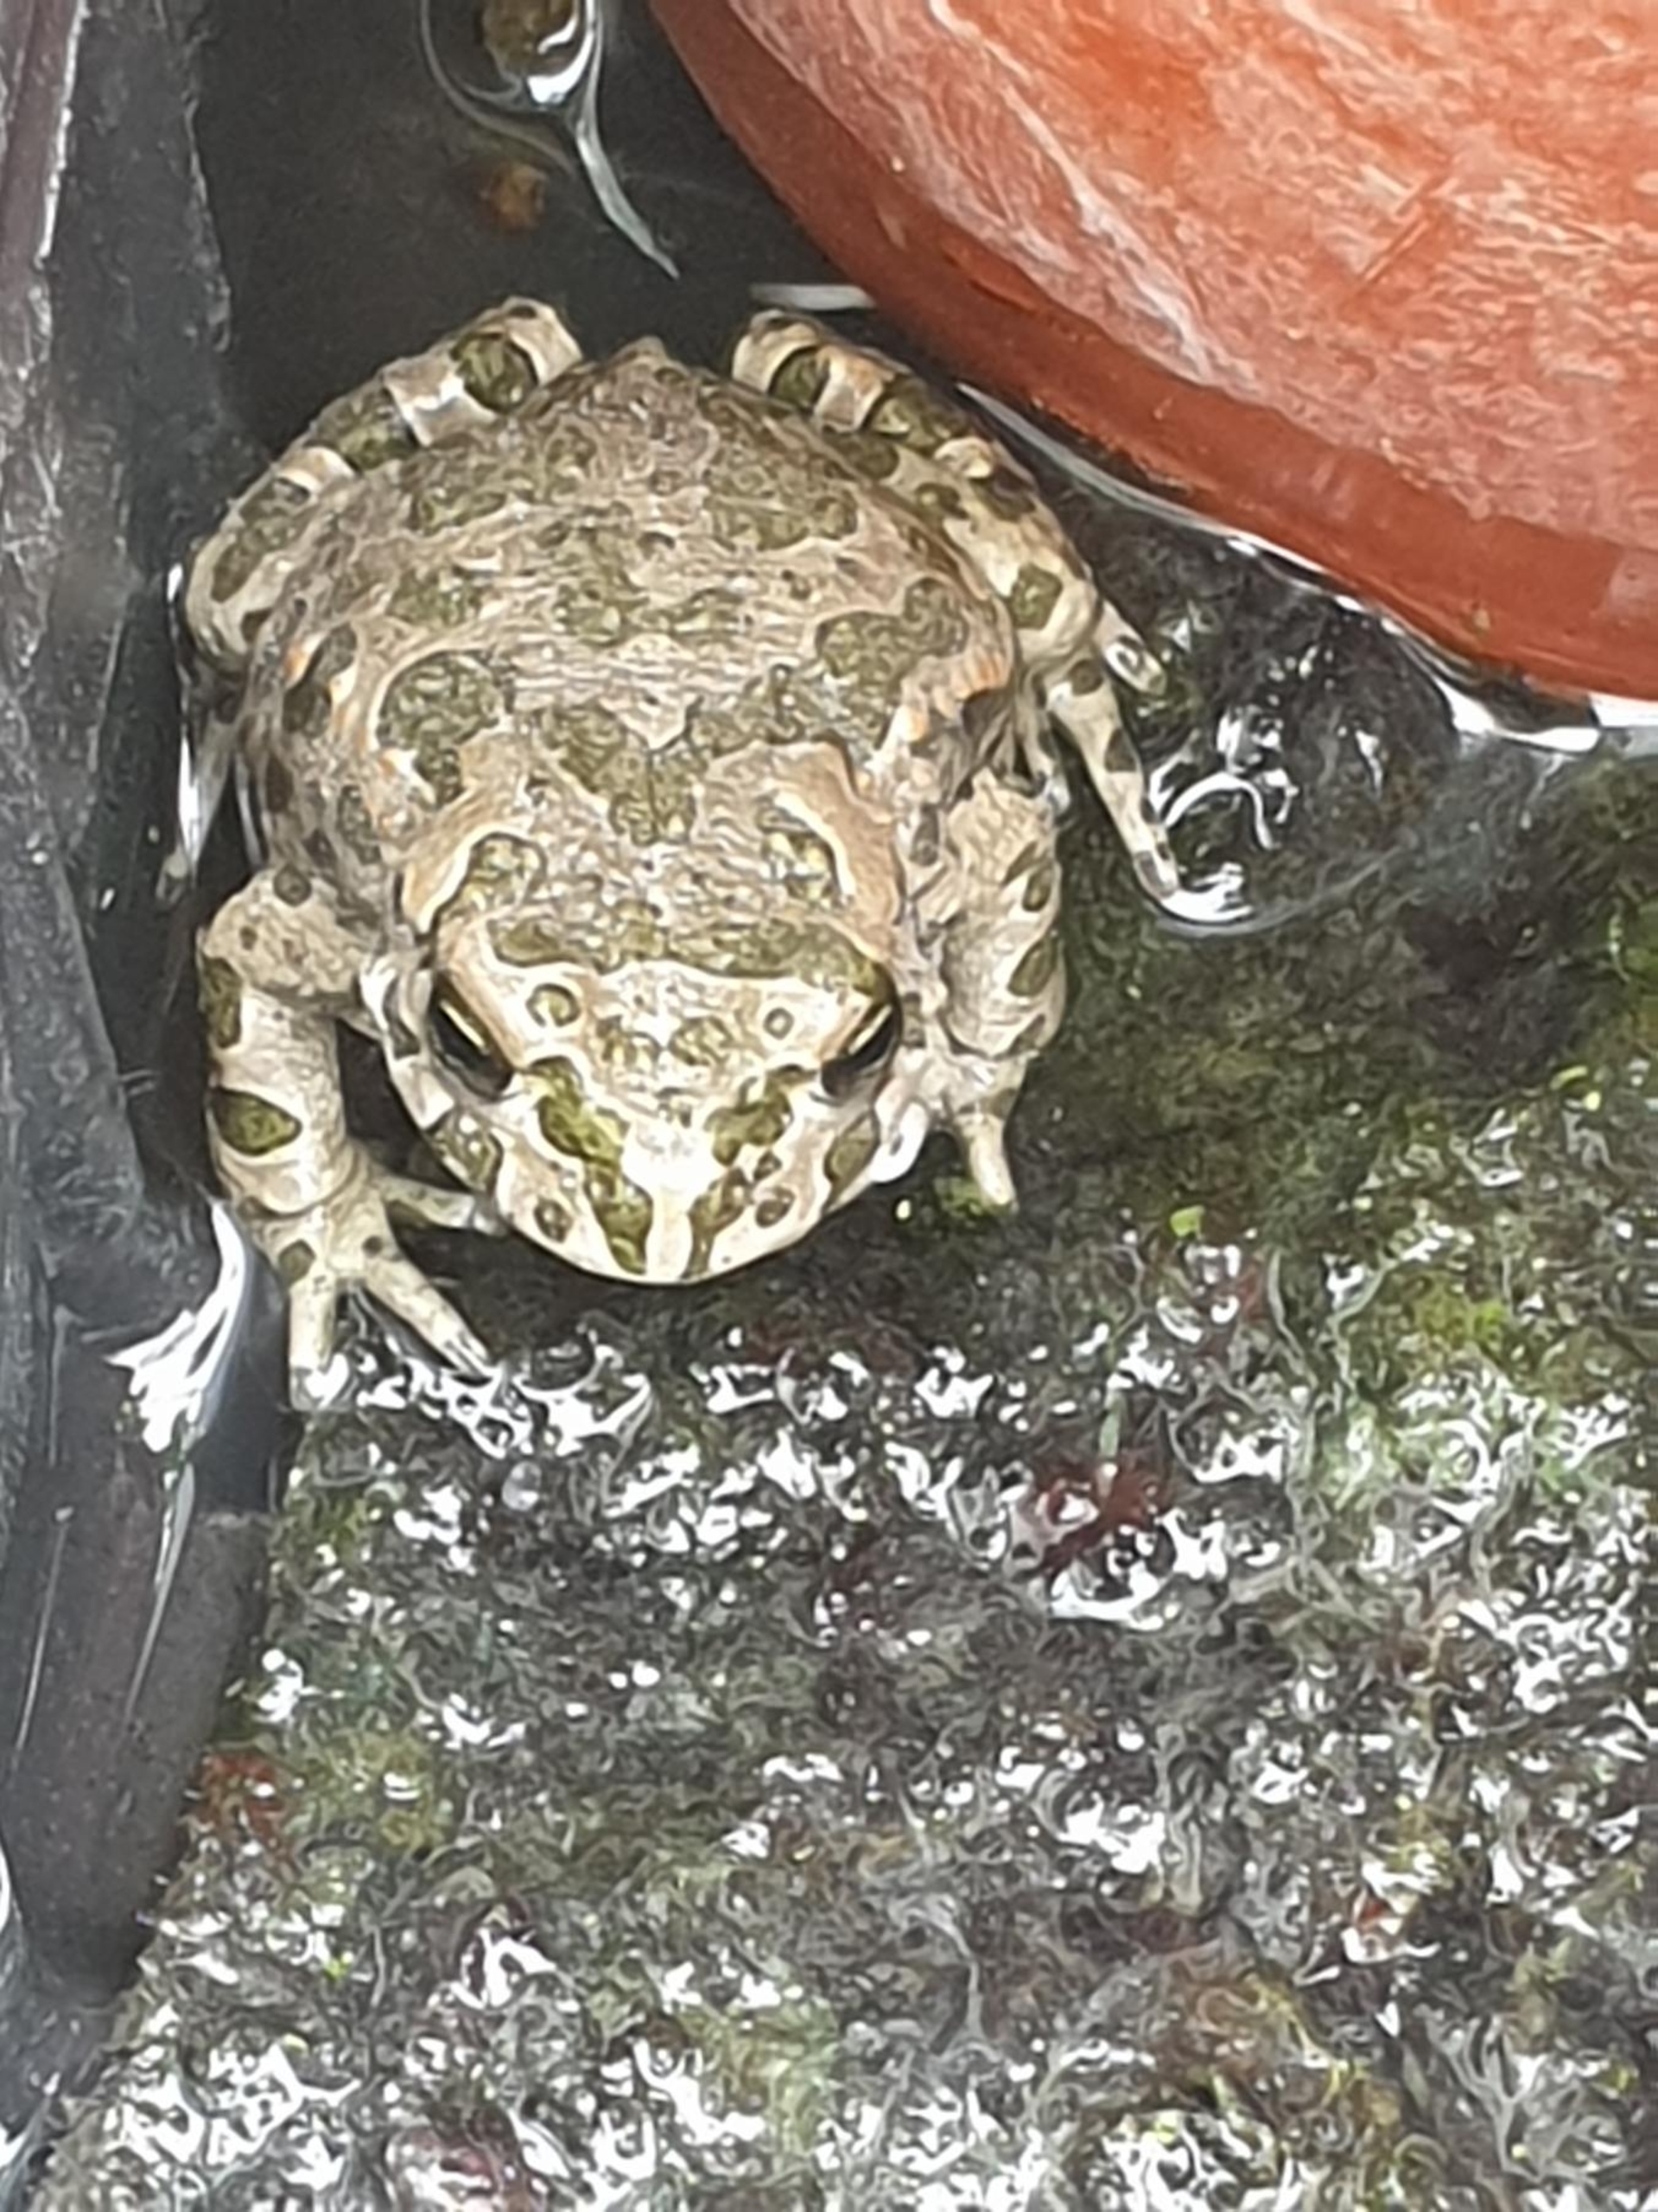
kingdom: Animalia
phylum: Chordata
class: Amphibia
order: Anura
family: Bufonidae
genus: Bufotes
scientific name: Bufotes viridis
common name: Grønbroget tudse
